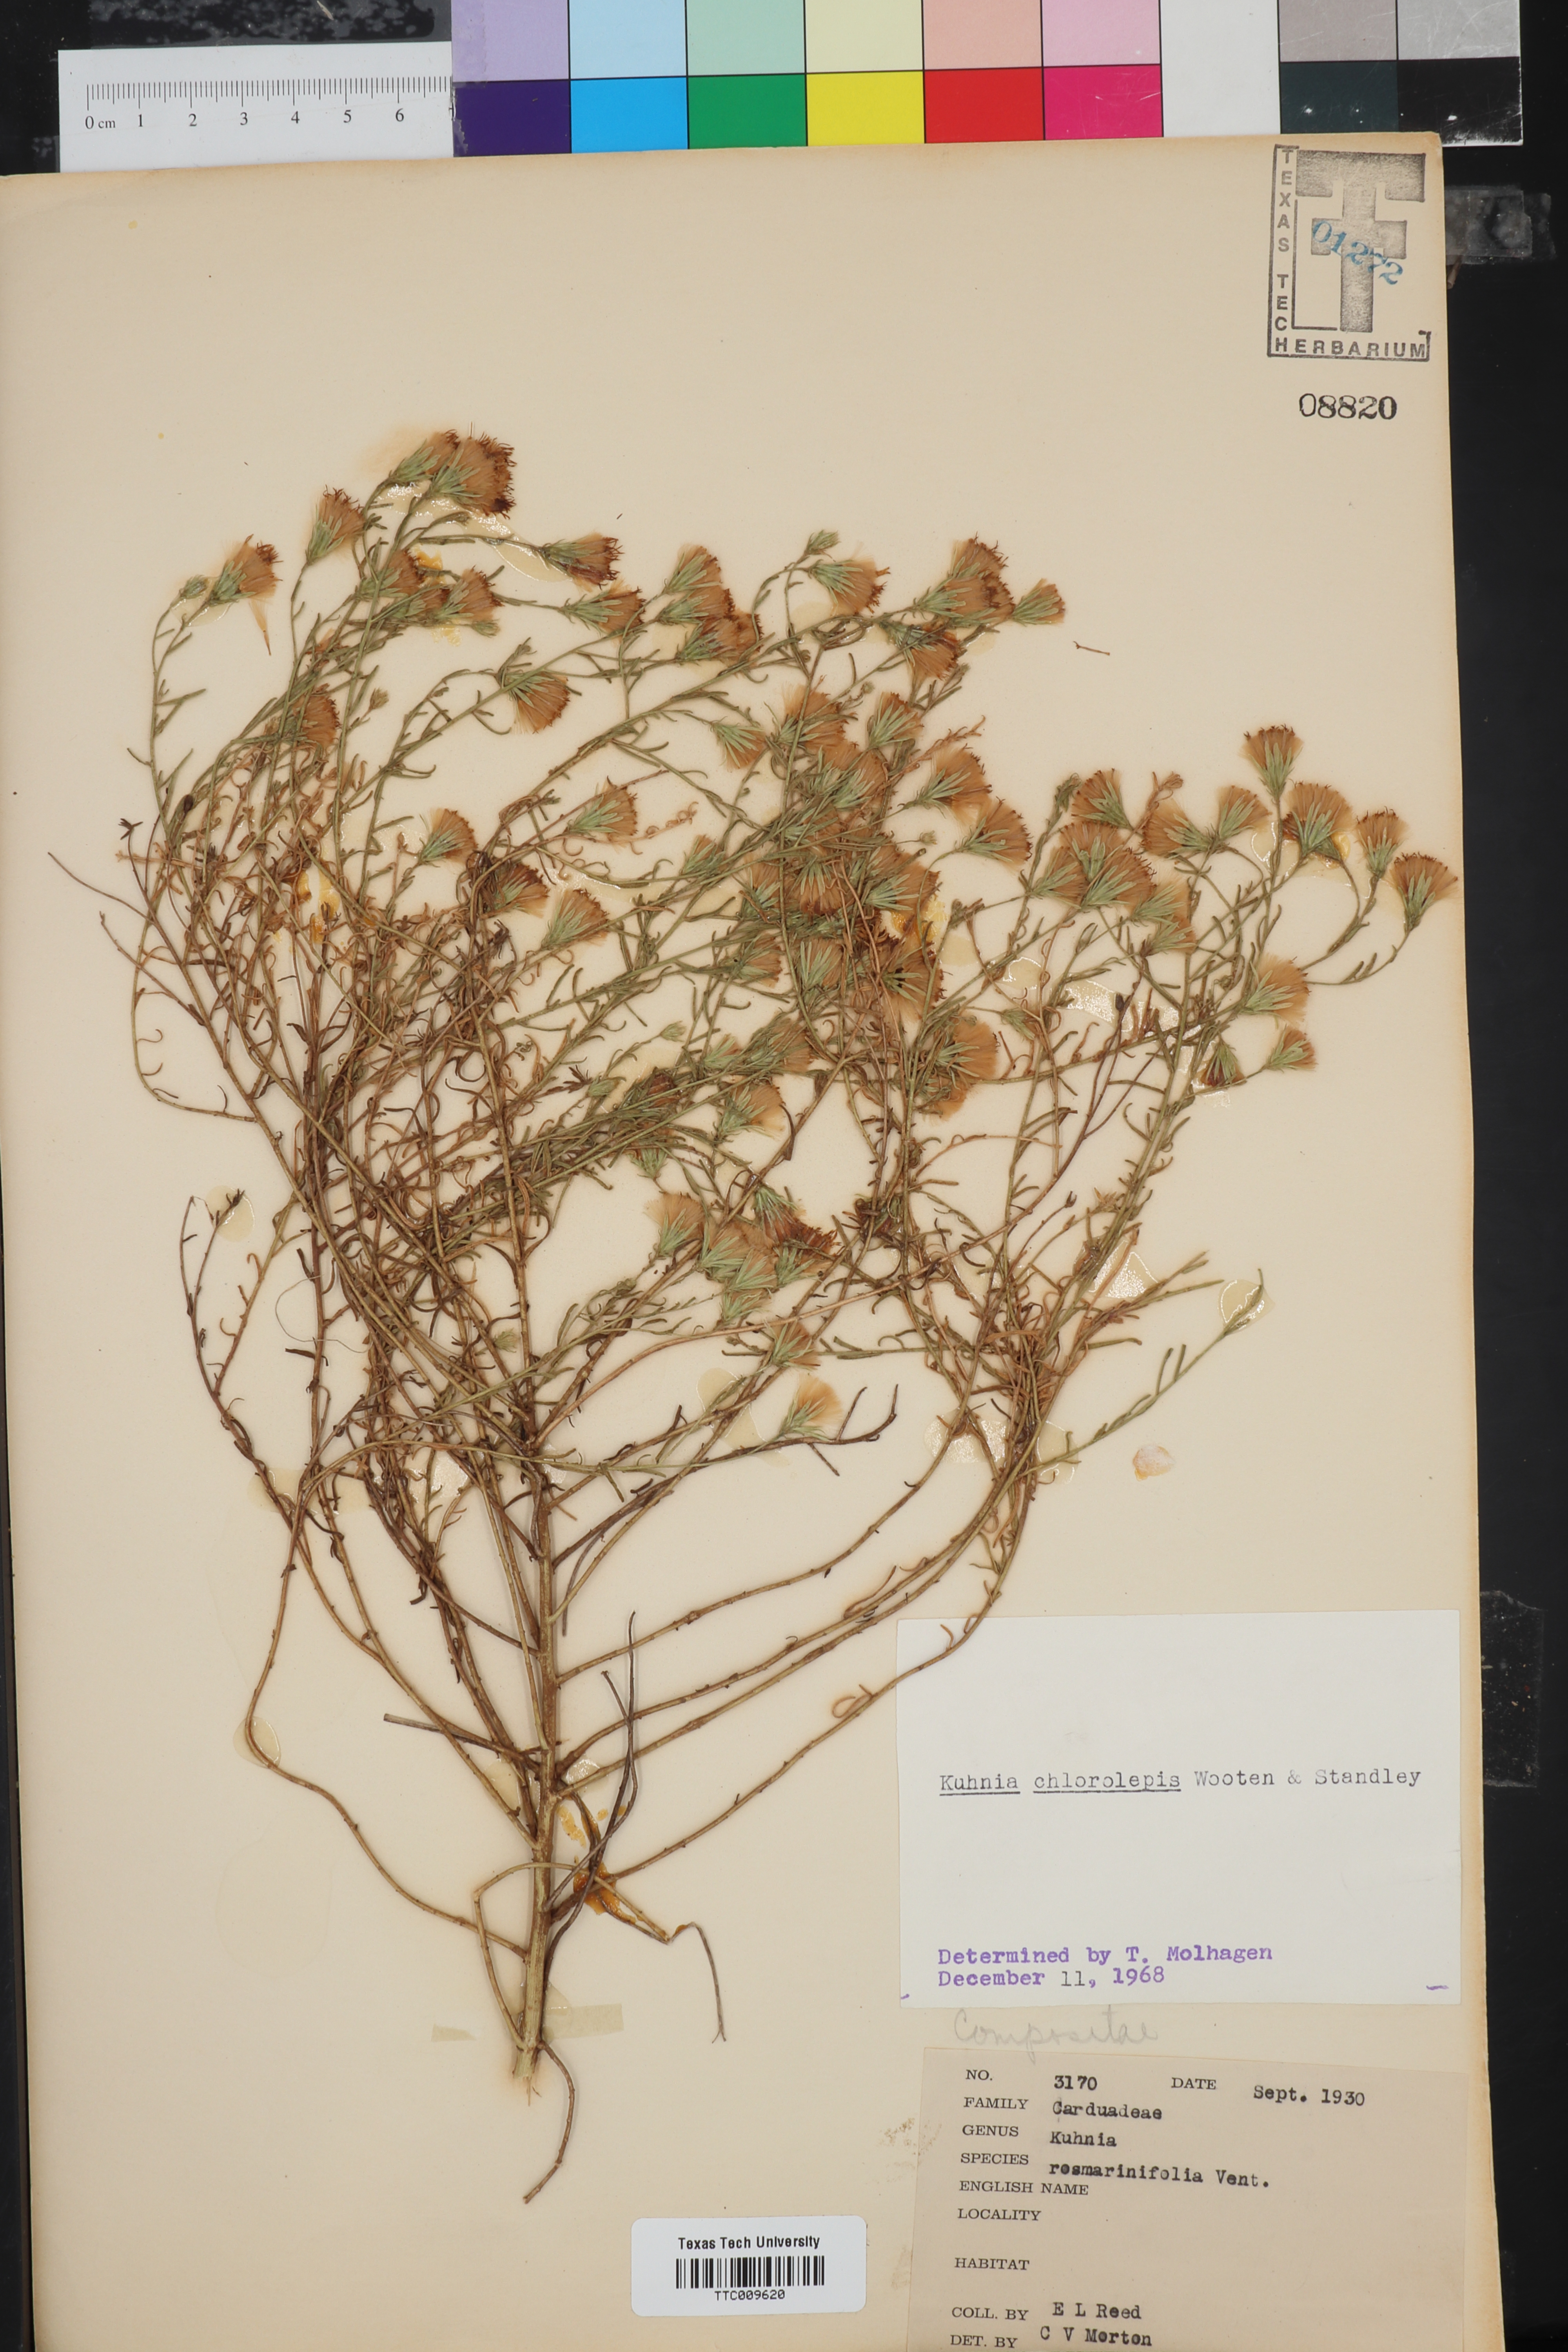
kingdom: Plantae
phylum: Tracheophyta
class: Magnoliopsida
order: Asterales
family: Asteraceae
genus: Brickellia
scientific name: Brickellia leptophylla
